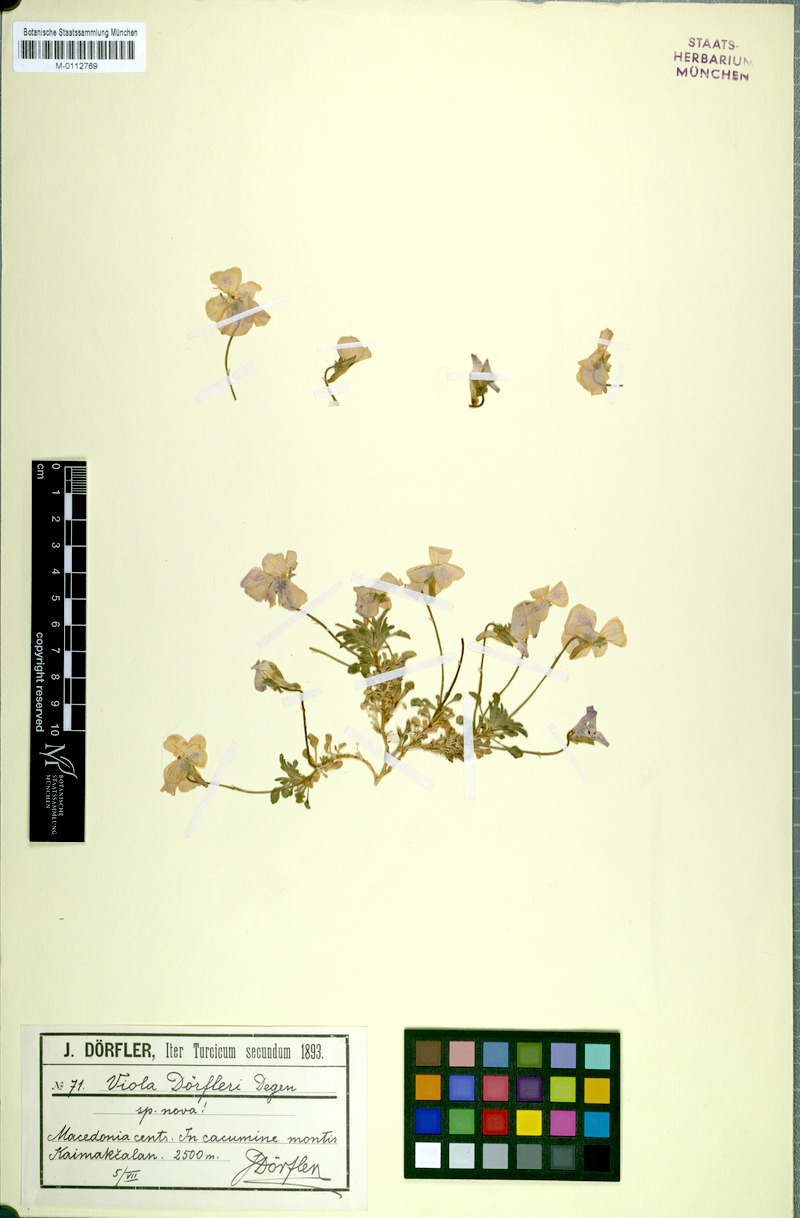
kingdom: Plantae
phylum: Tracheophyta
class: Magnoliopsida
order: Malpighiales
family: Violaceae
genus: Viola
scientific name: Viola doerfleri
